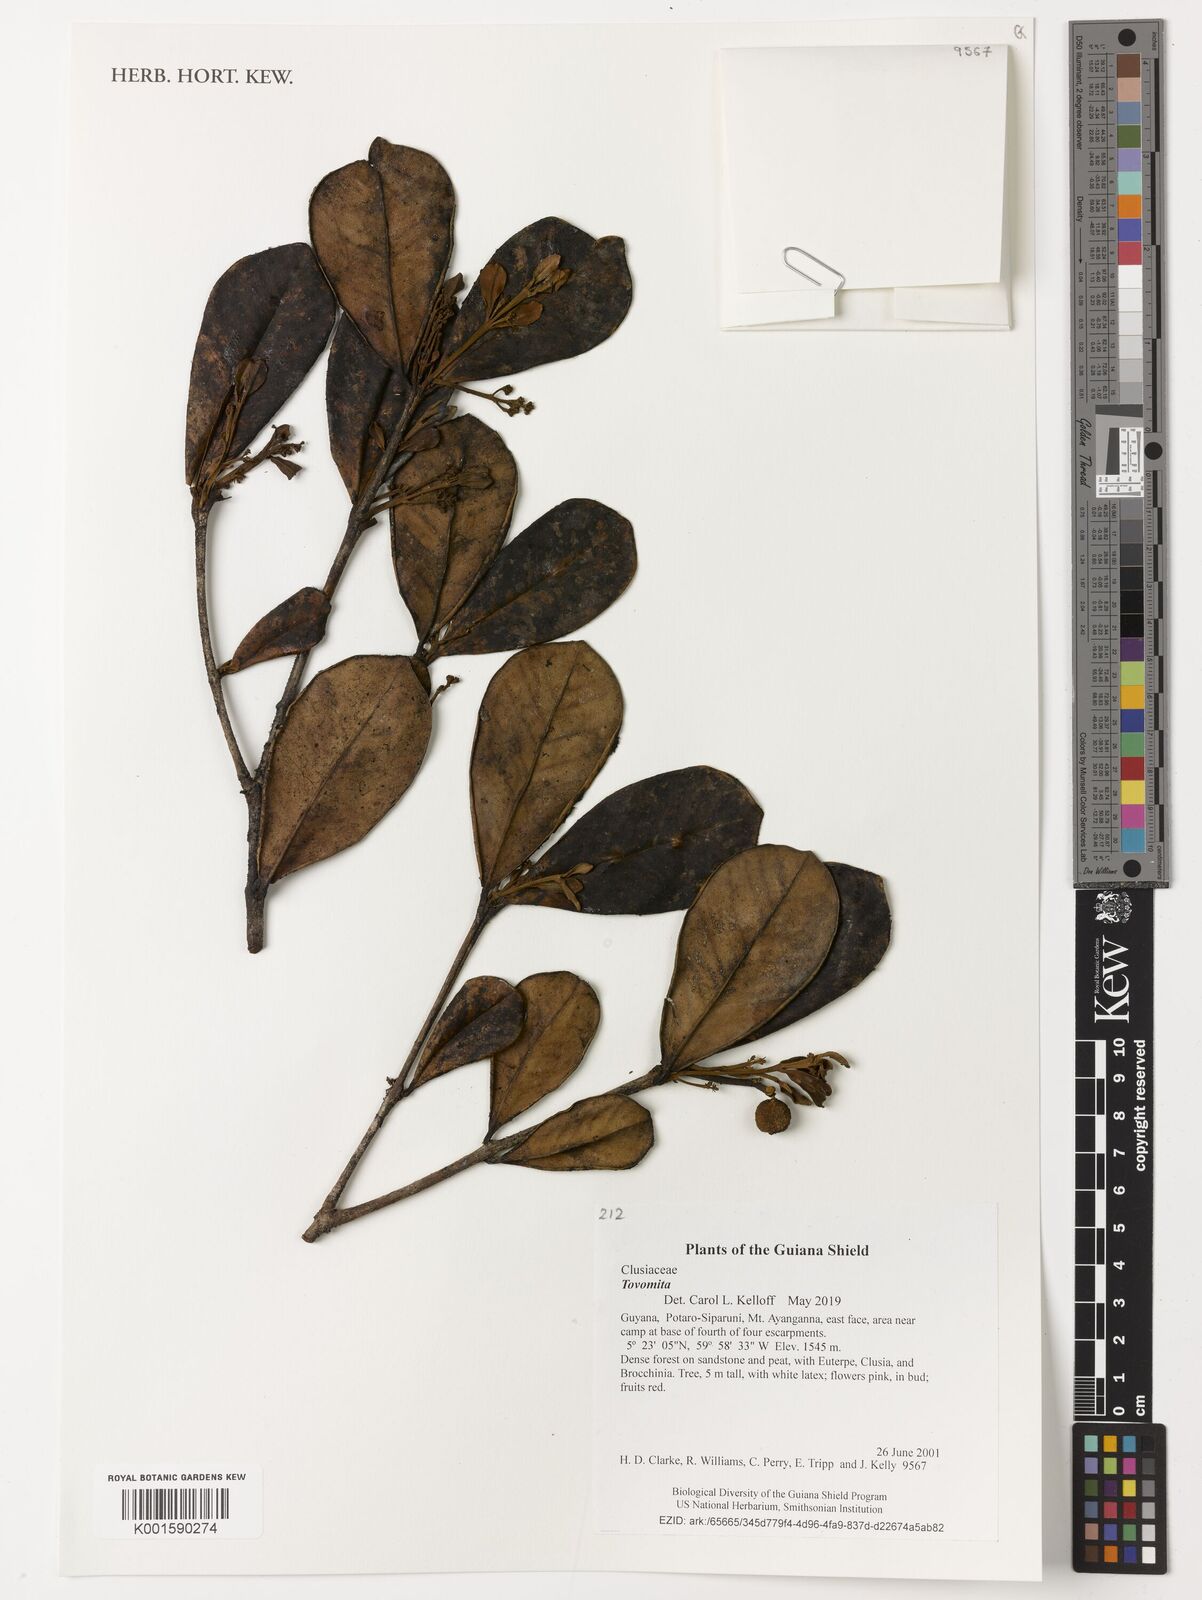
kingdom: Plantae
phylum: Tracheophyta
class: Magnoliopsida
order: Malpighiales
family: Clusiaceae
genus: Tovomita
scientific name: Tovomita
